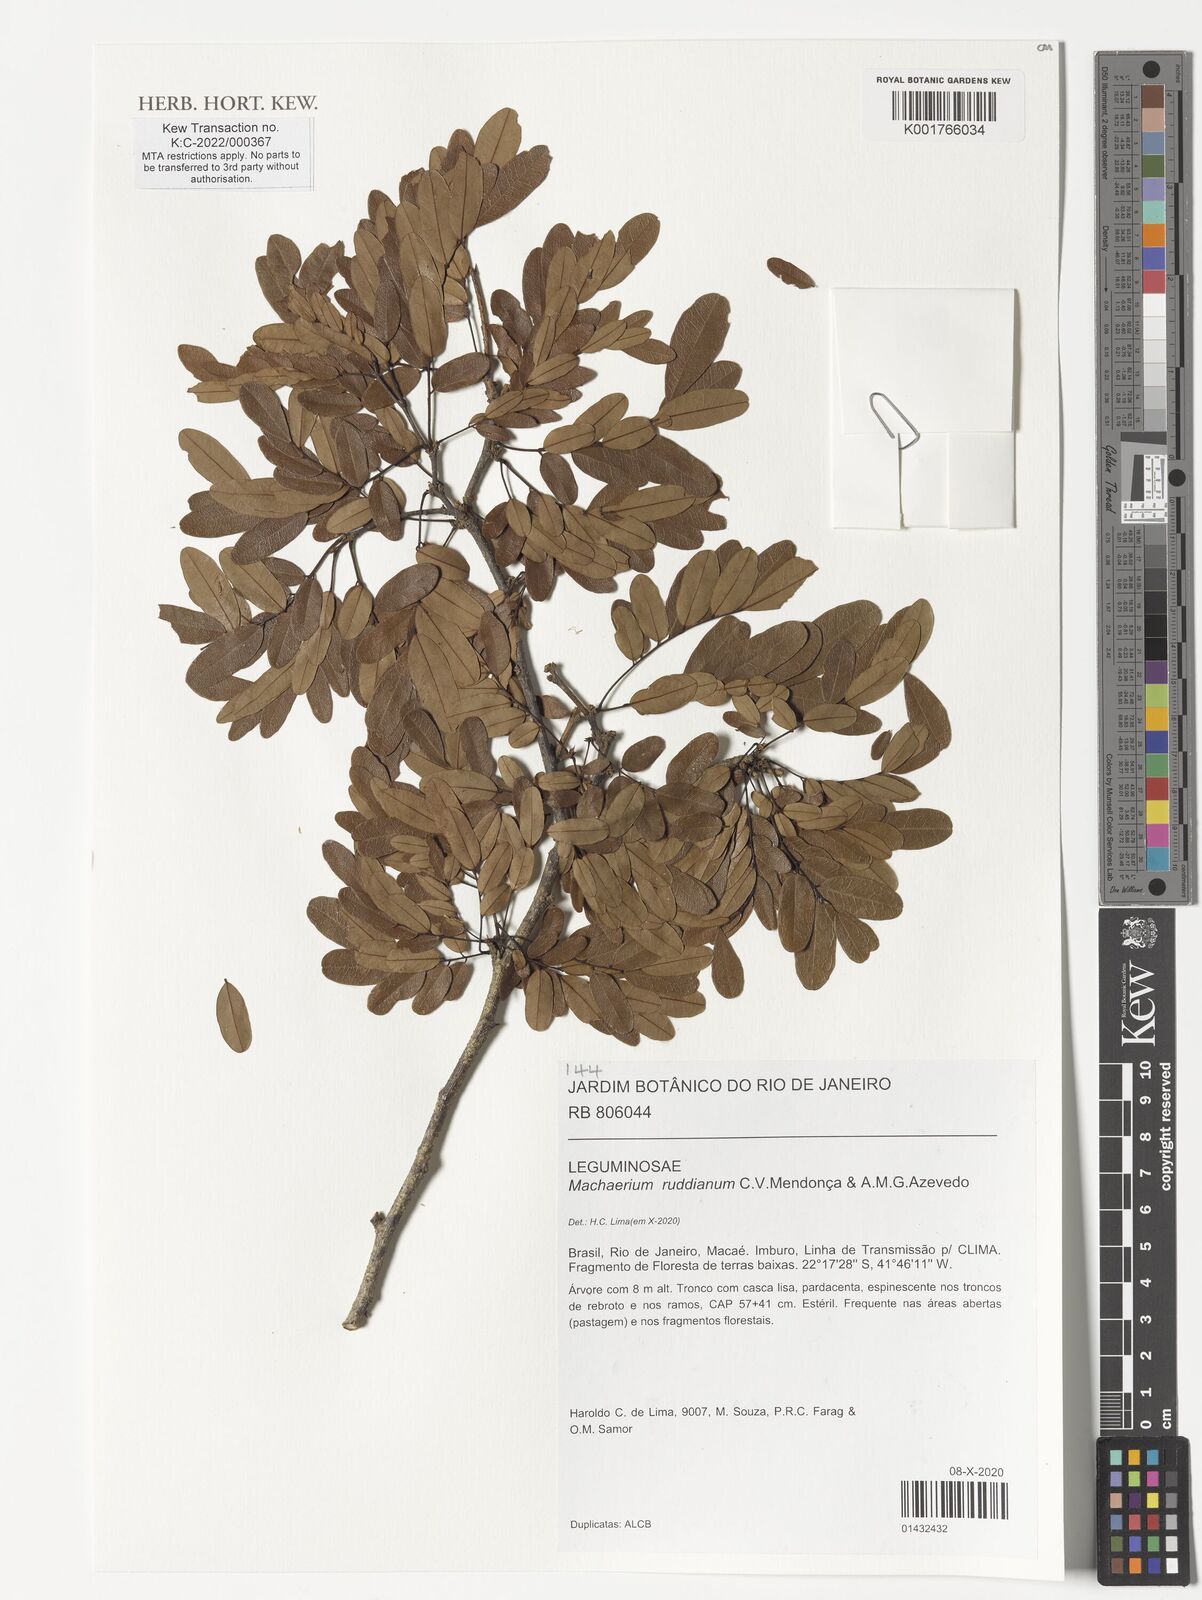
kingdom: Plantae
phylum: Tracheophyta
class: Magnoliopsida
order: Fabales
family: Fabaceae
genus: Machaerium
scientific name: Machaerium ruddianum
